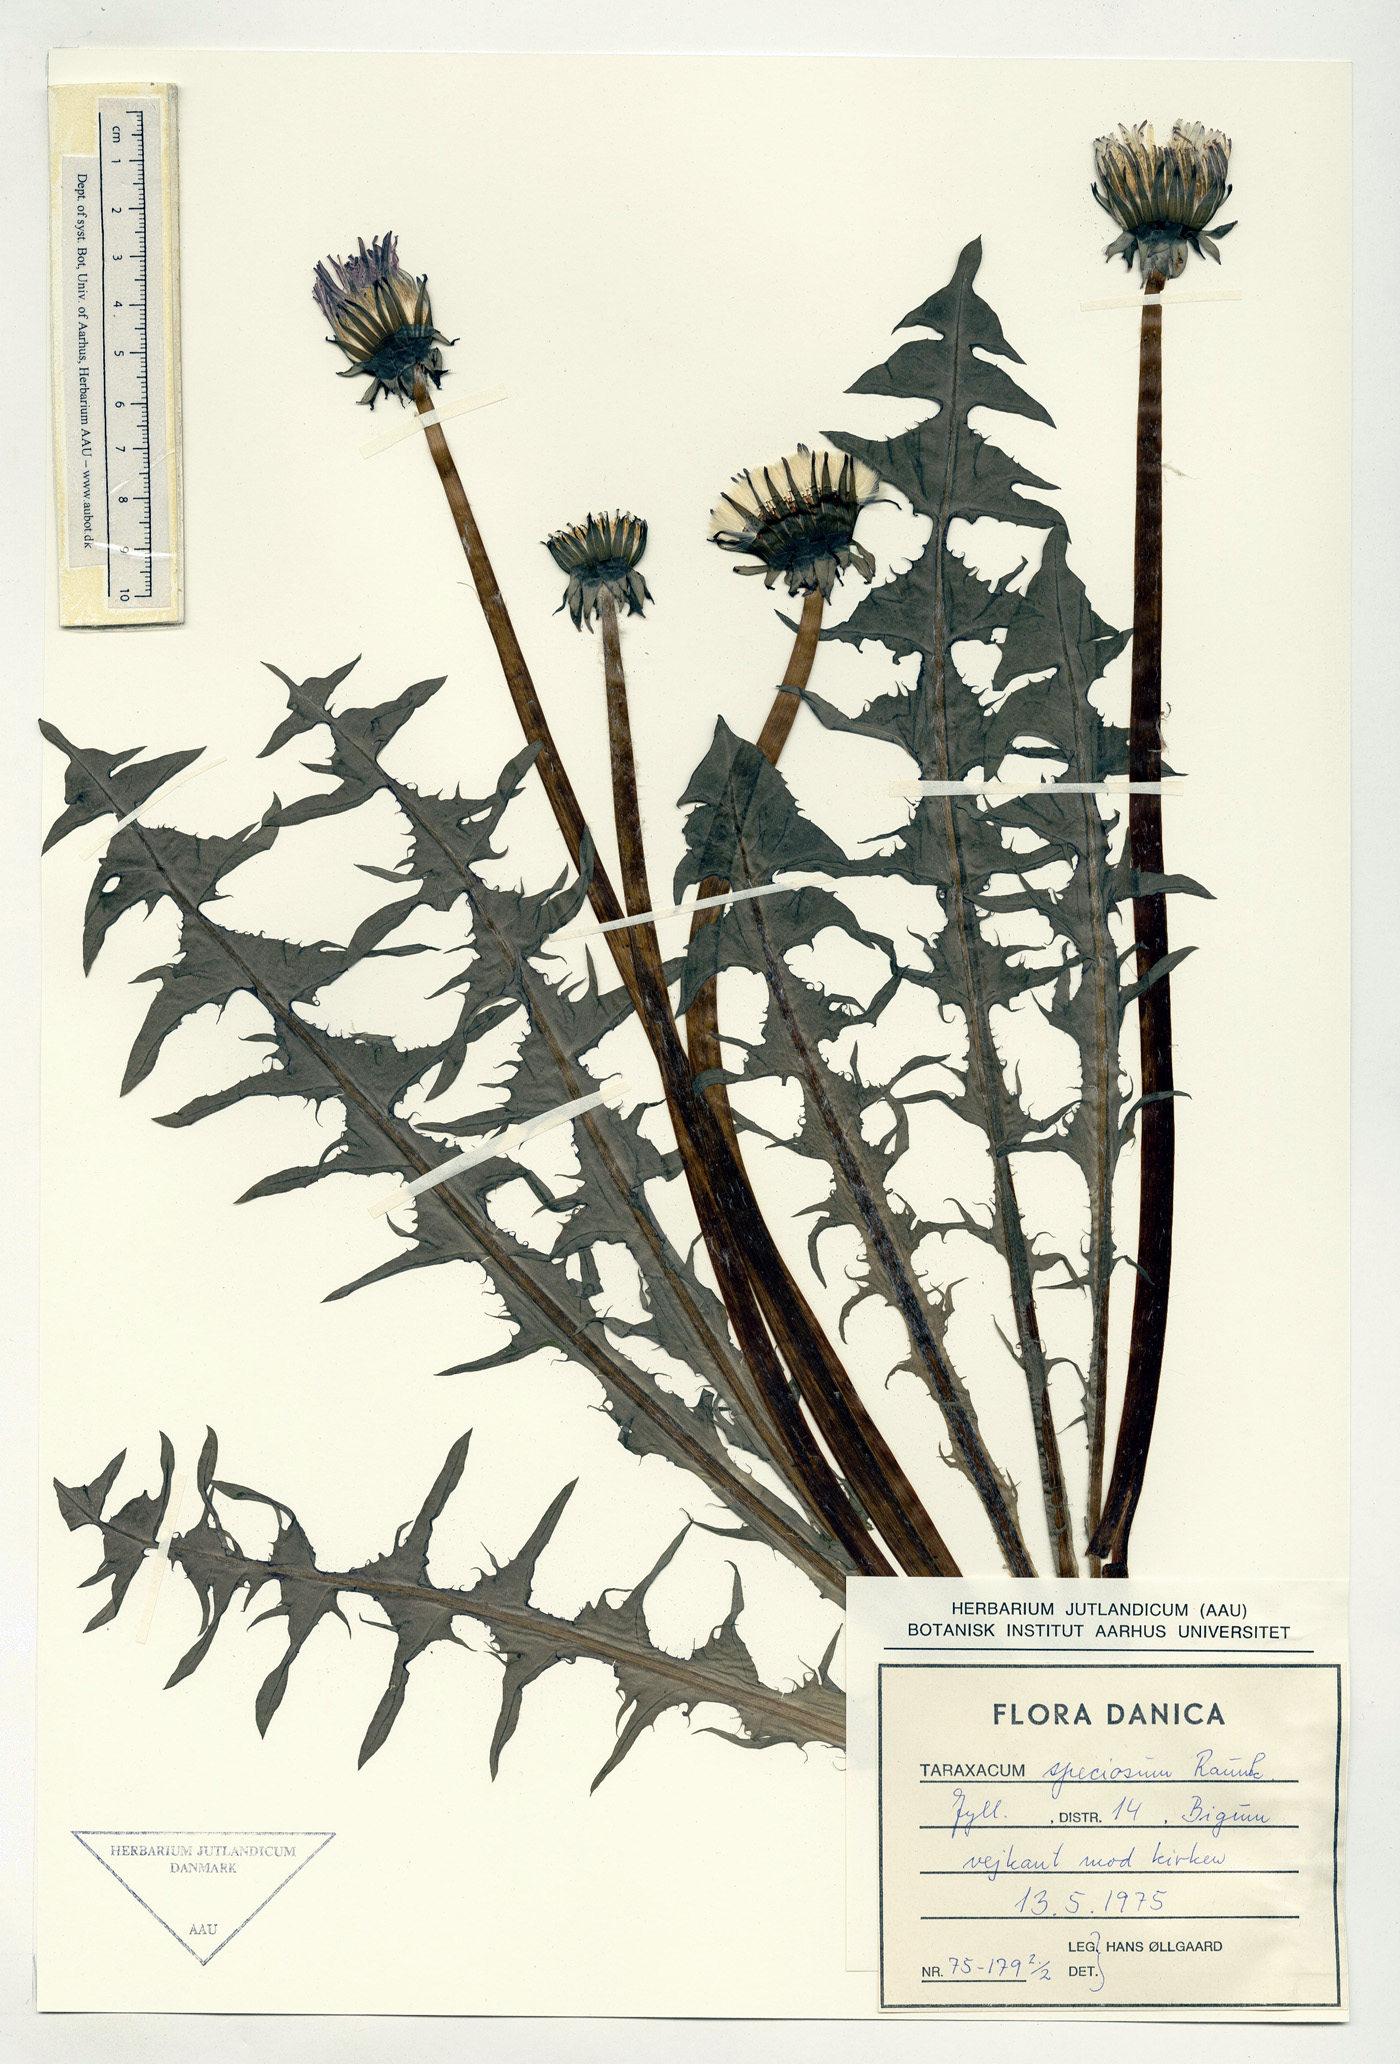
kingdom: Plantae
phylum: Tracheophyta
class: Magnoliopsida
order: Asterales
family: Asteraceae
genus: Taraxacum
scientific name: Taraxacum speciosum
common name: Massive dandelion
